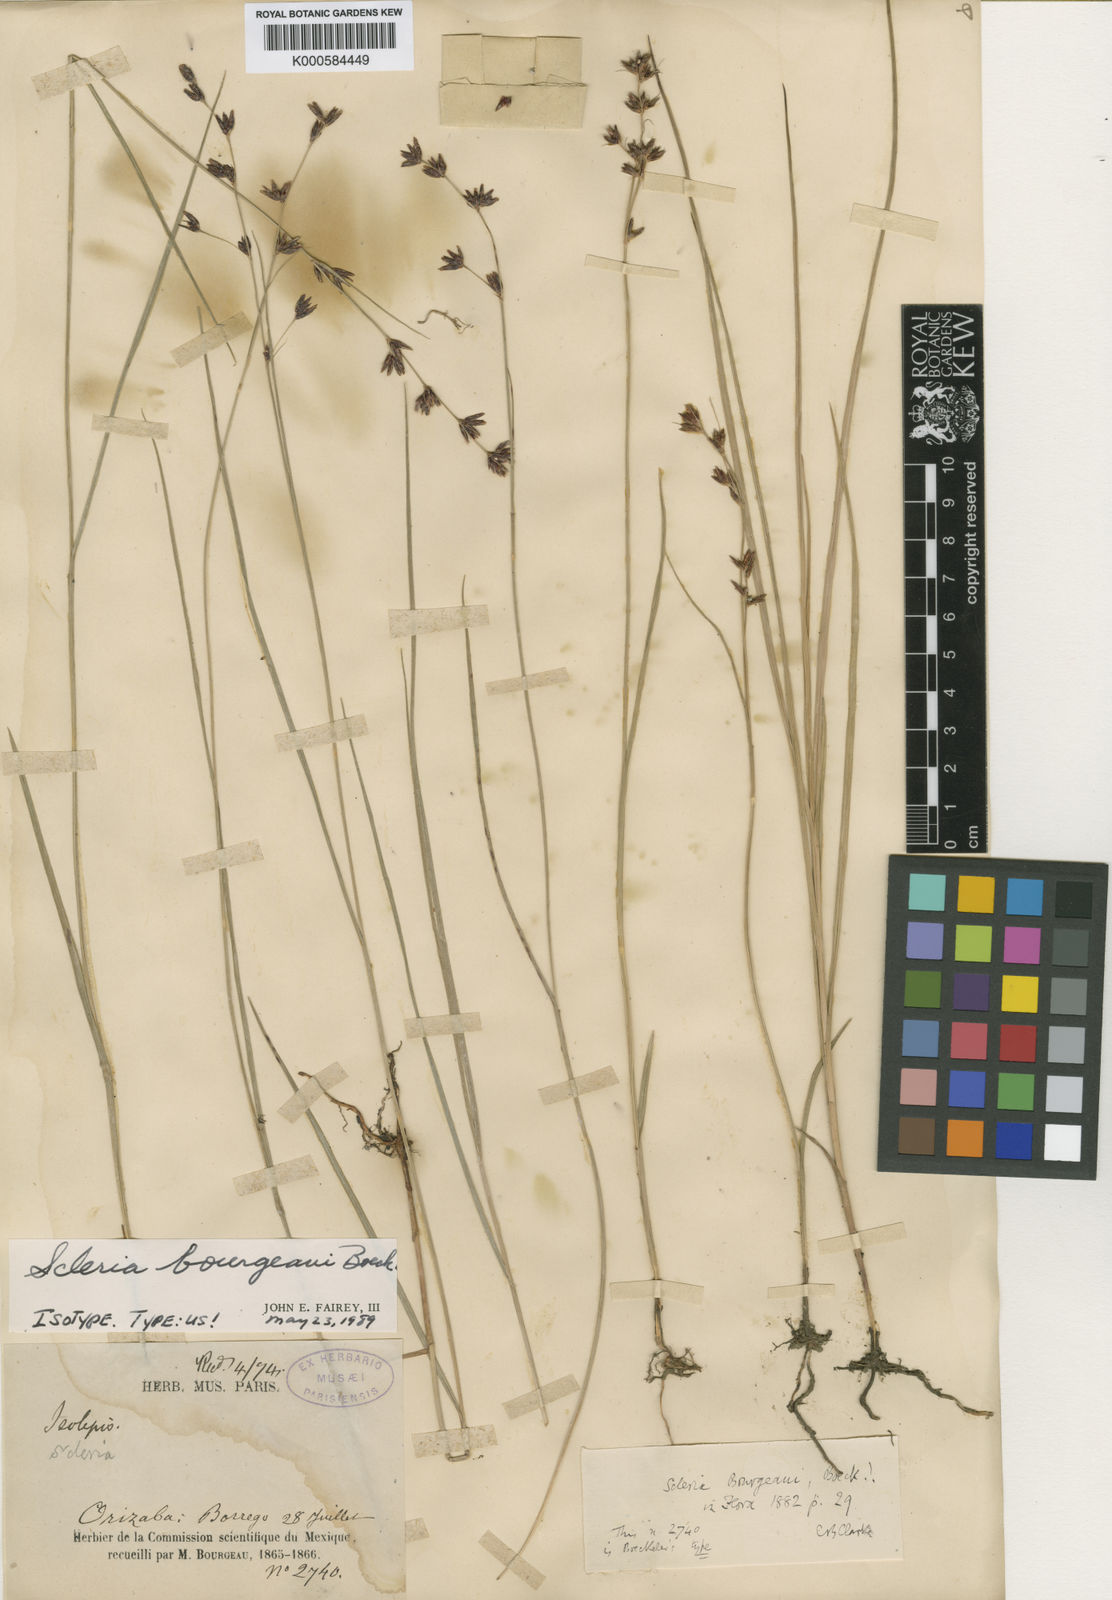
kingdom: Plantae
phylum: Tracheophyta
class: Liliopsida
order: Poales
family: Cyperaceae
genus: Scleria
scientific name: Scleria bourgeaui
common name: Bourgeau's nutrush
